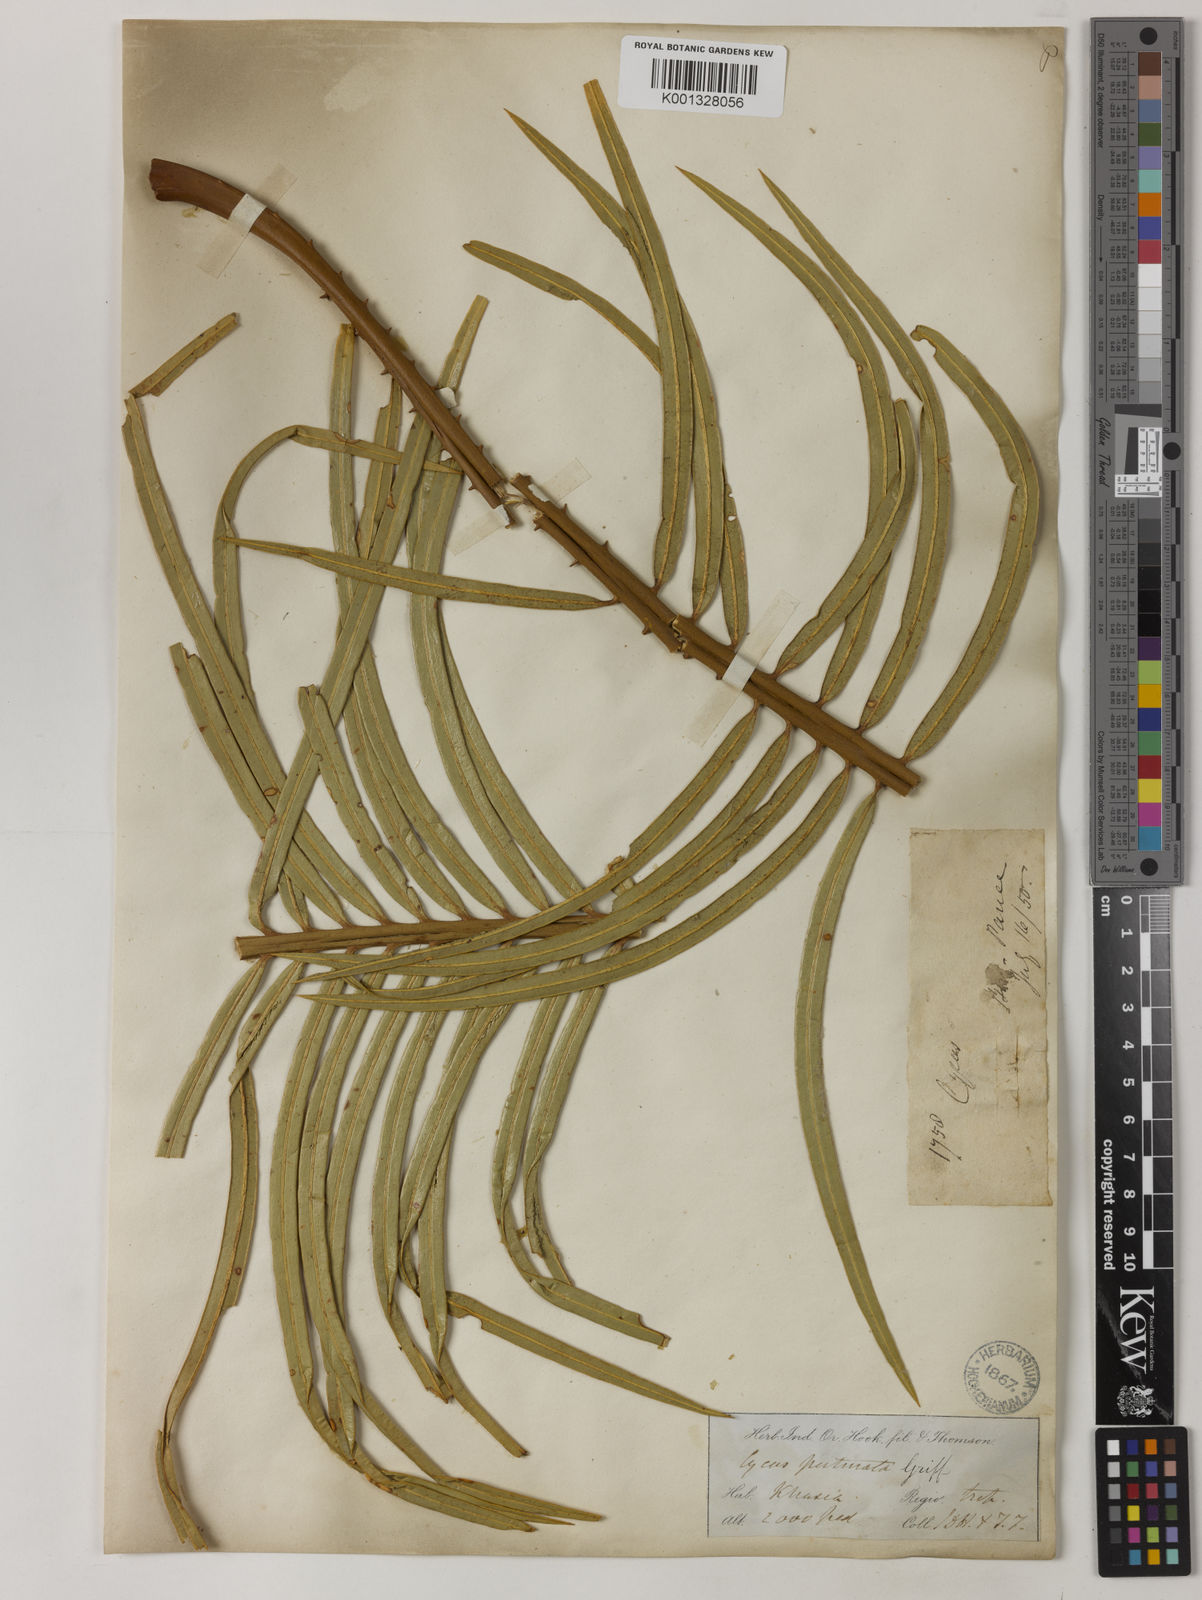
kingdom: Plantae
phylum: Tracheophyta
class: Cycadopsida
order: Cycadales
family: Cycadaceae
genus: Cycas
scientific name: Cycas
